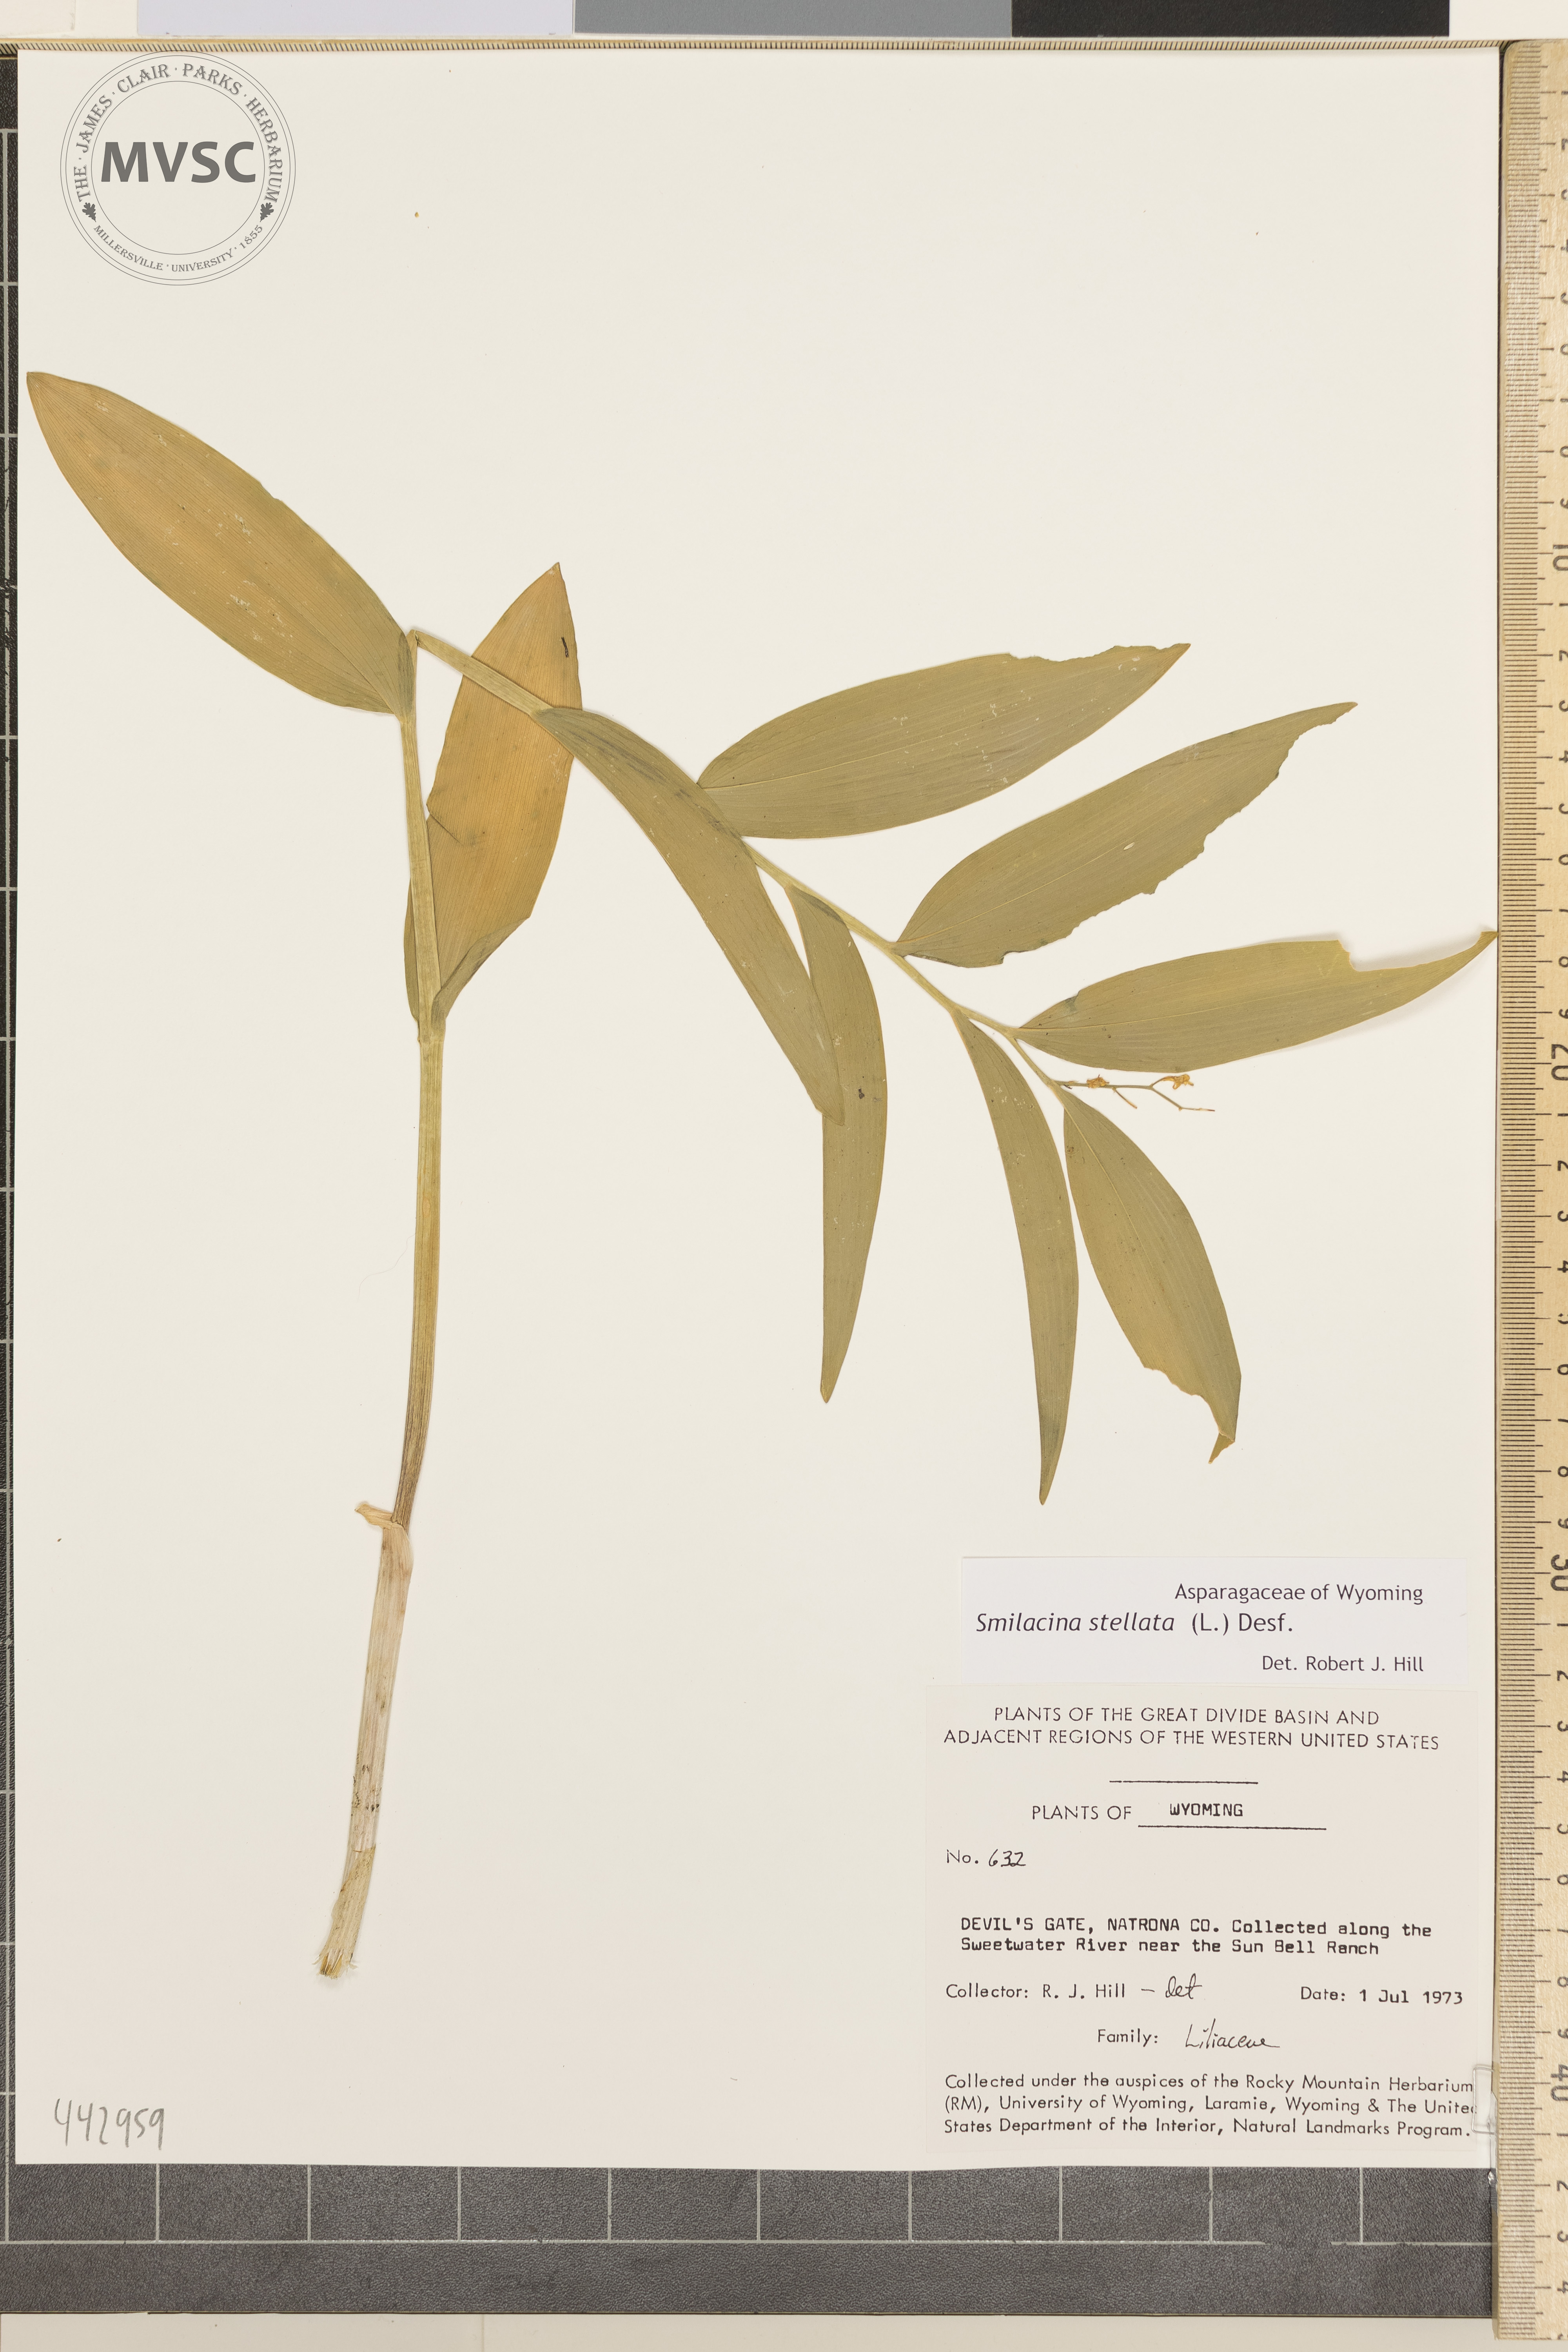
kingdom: Plantae
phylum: Tracheophyta
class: Liliopsida
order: Asparagales
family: Asparagaceae
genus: Maianthemum
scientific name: Maianthemum stellatum
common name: Little false solomon's seal
